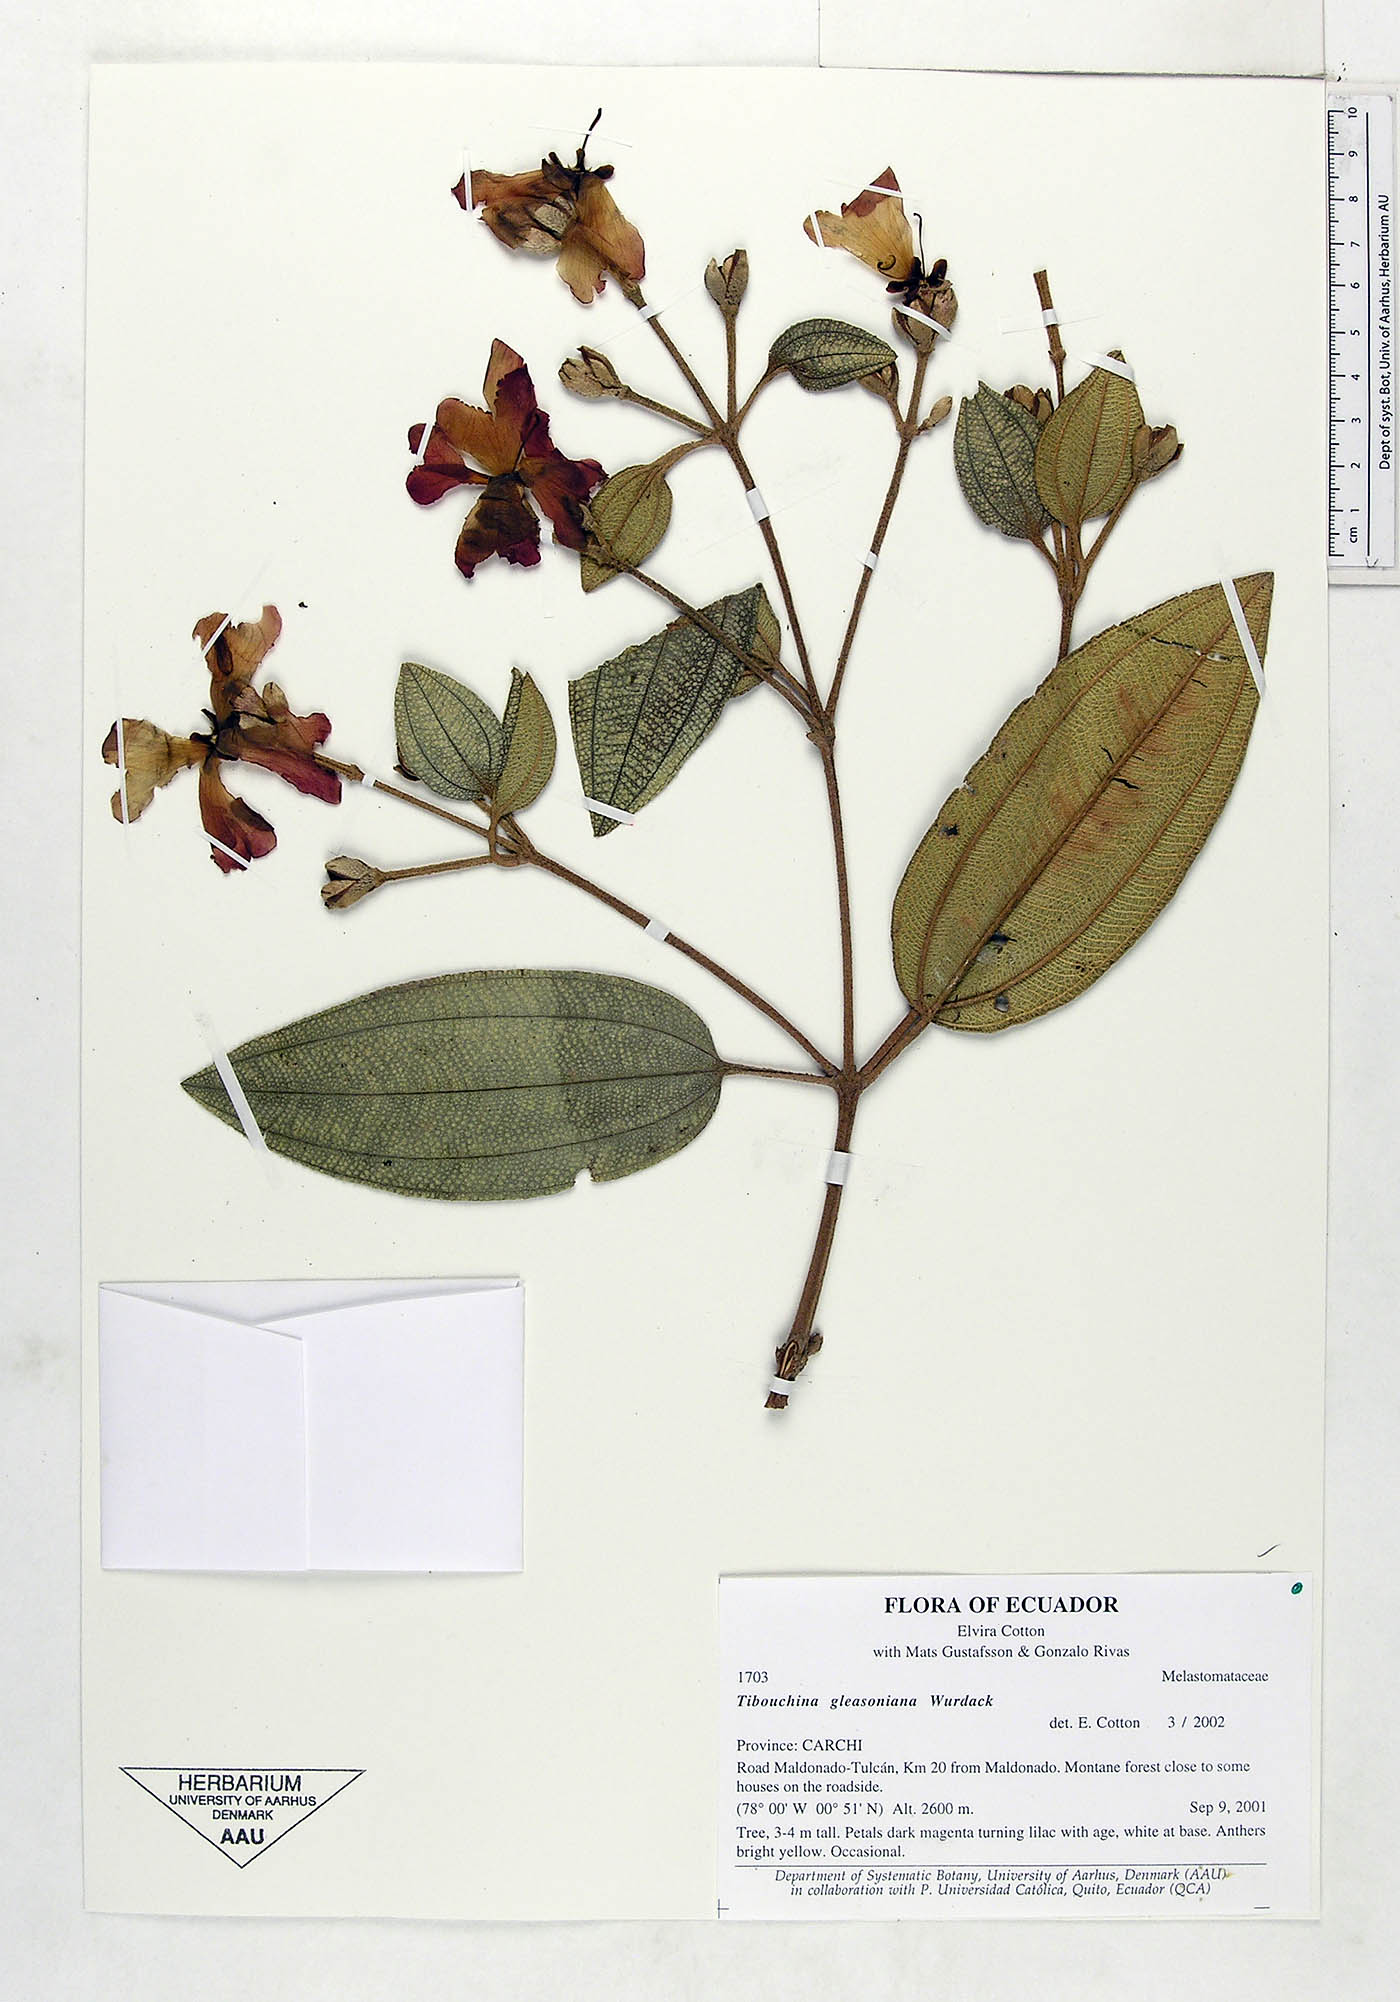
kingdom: Plantae
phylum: Tracheophyta
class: Magnoliopsida
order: Myrtales
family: Melastomataceae
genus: Andesanthus
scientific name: Andesanthus gleasonianus
